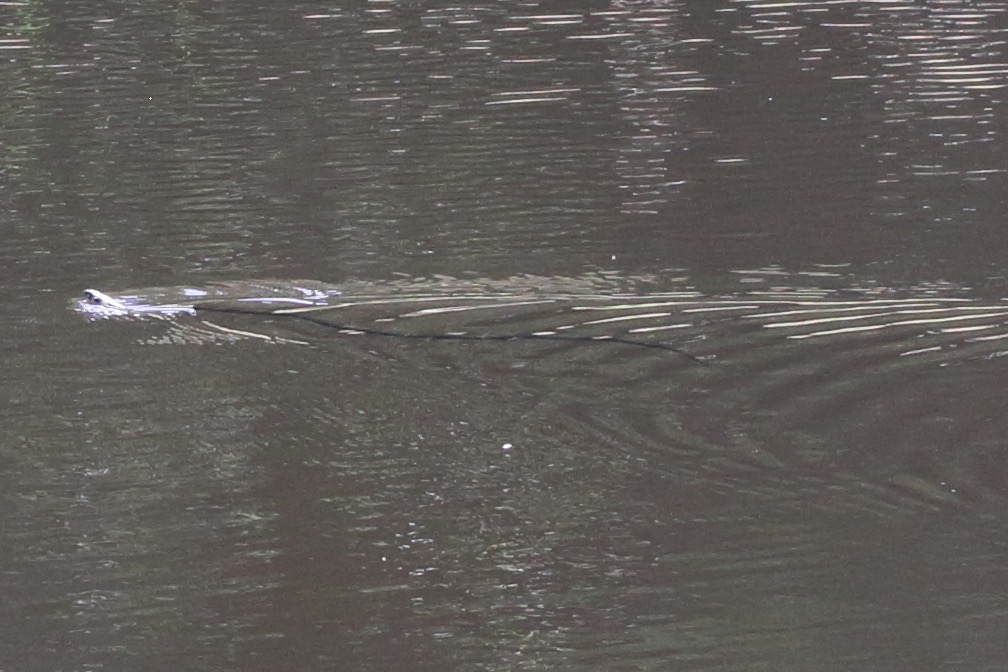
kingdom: Animalia
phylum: Chordata
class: Squamata
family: Colubridae
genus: Natrix
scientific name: Natrix natrix
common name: Snog
